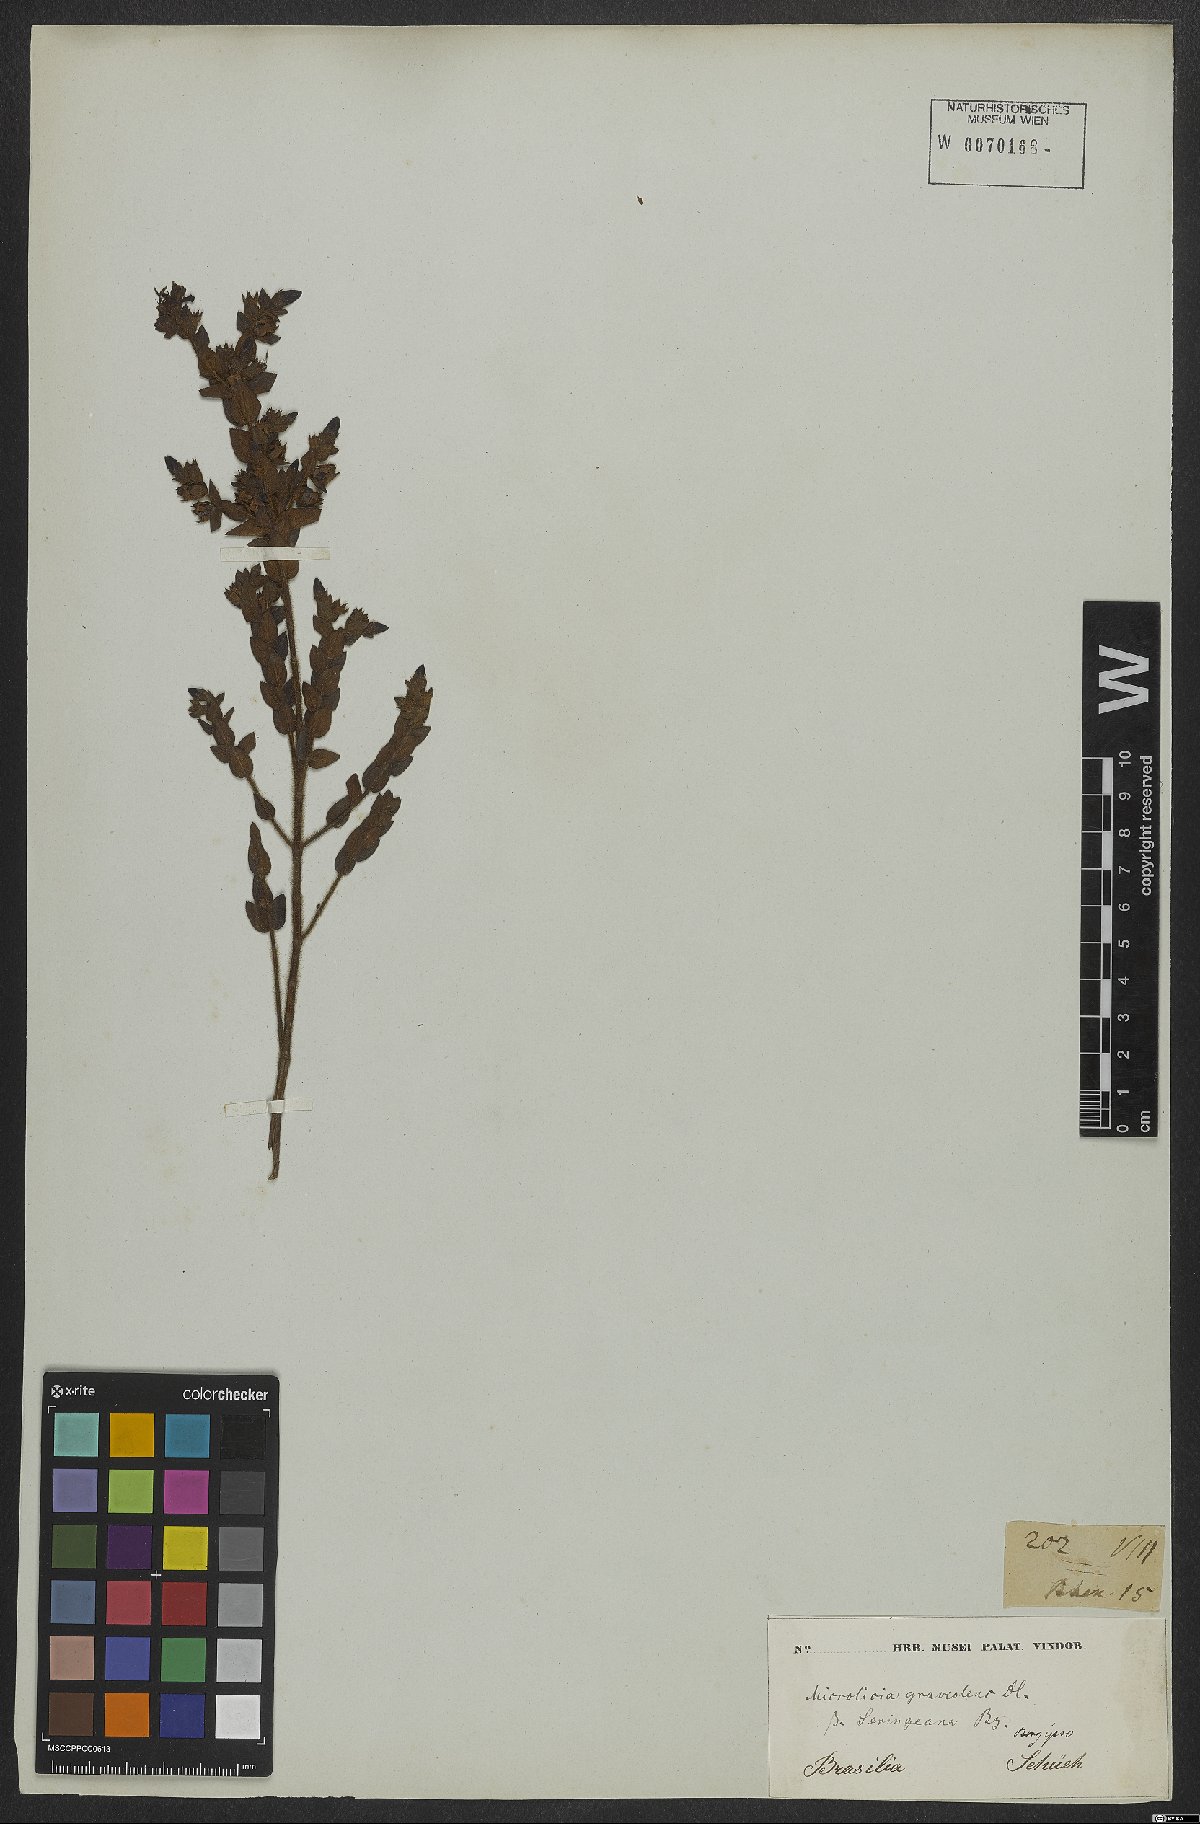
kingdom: Plantae
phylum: Tracheophyta
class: Magnoliopsida
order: Myrtales
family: Melastomataceae
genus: Microlicia
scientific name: Microlicia graveolens
